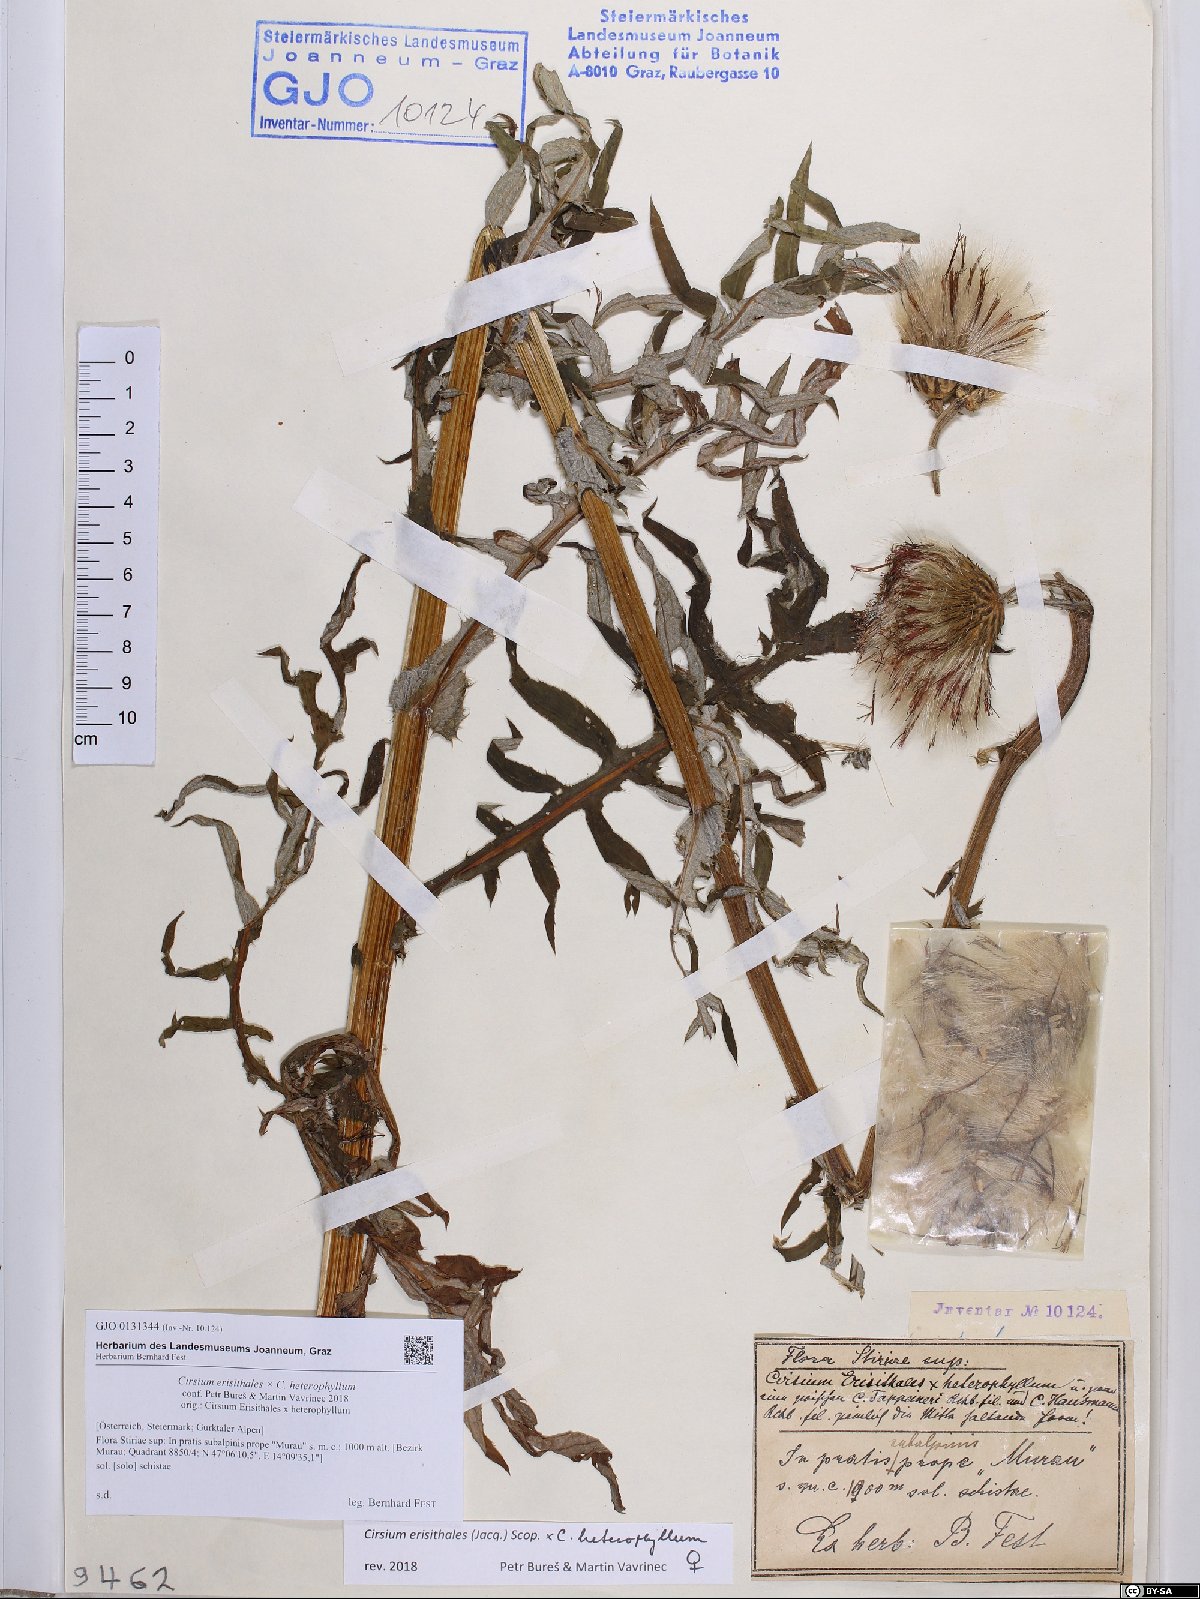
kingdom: Plantae
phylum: Tracheophyta
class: Magnoliopsida
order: Asterales
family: Asteraceae
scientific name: Asteraceae
